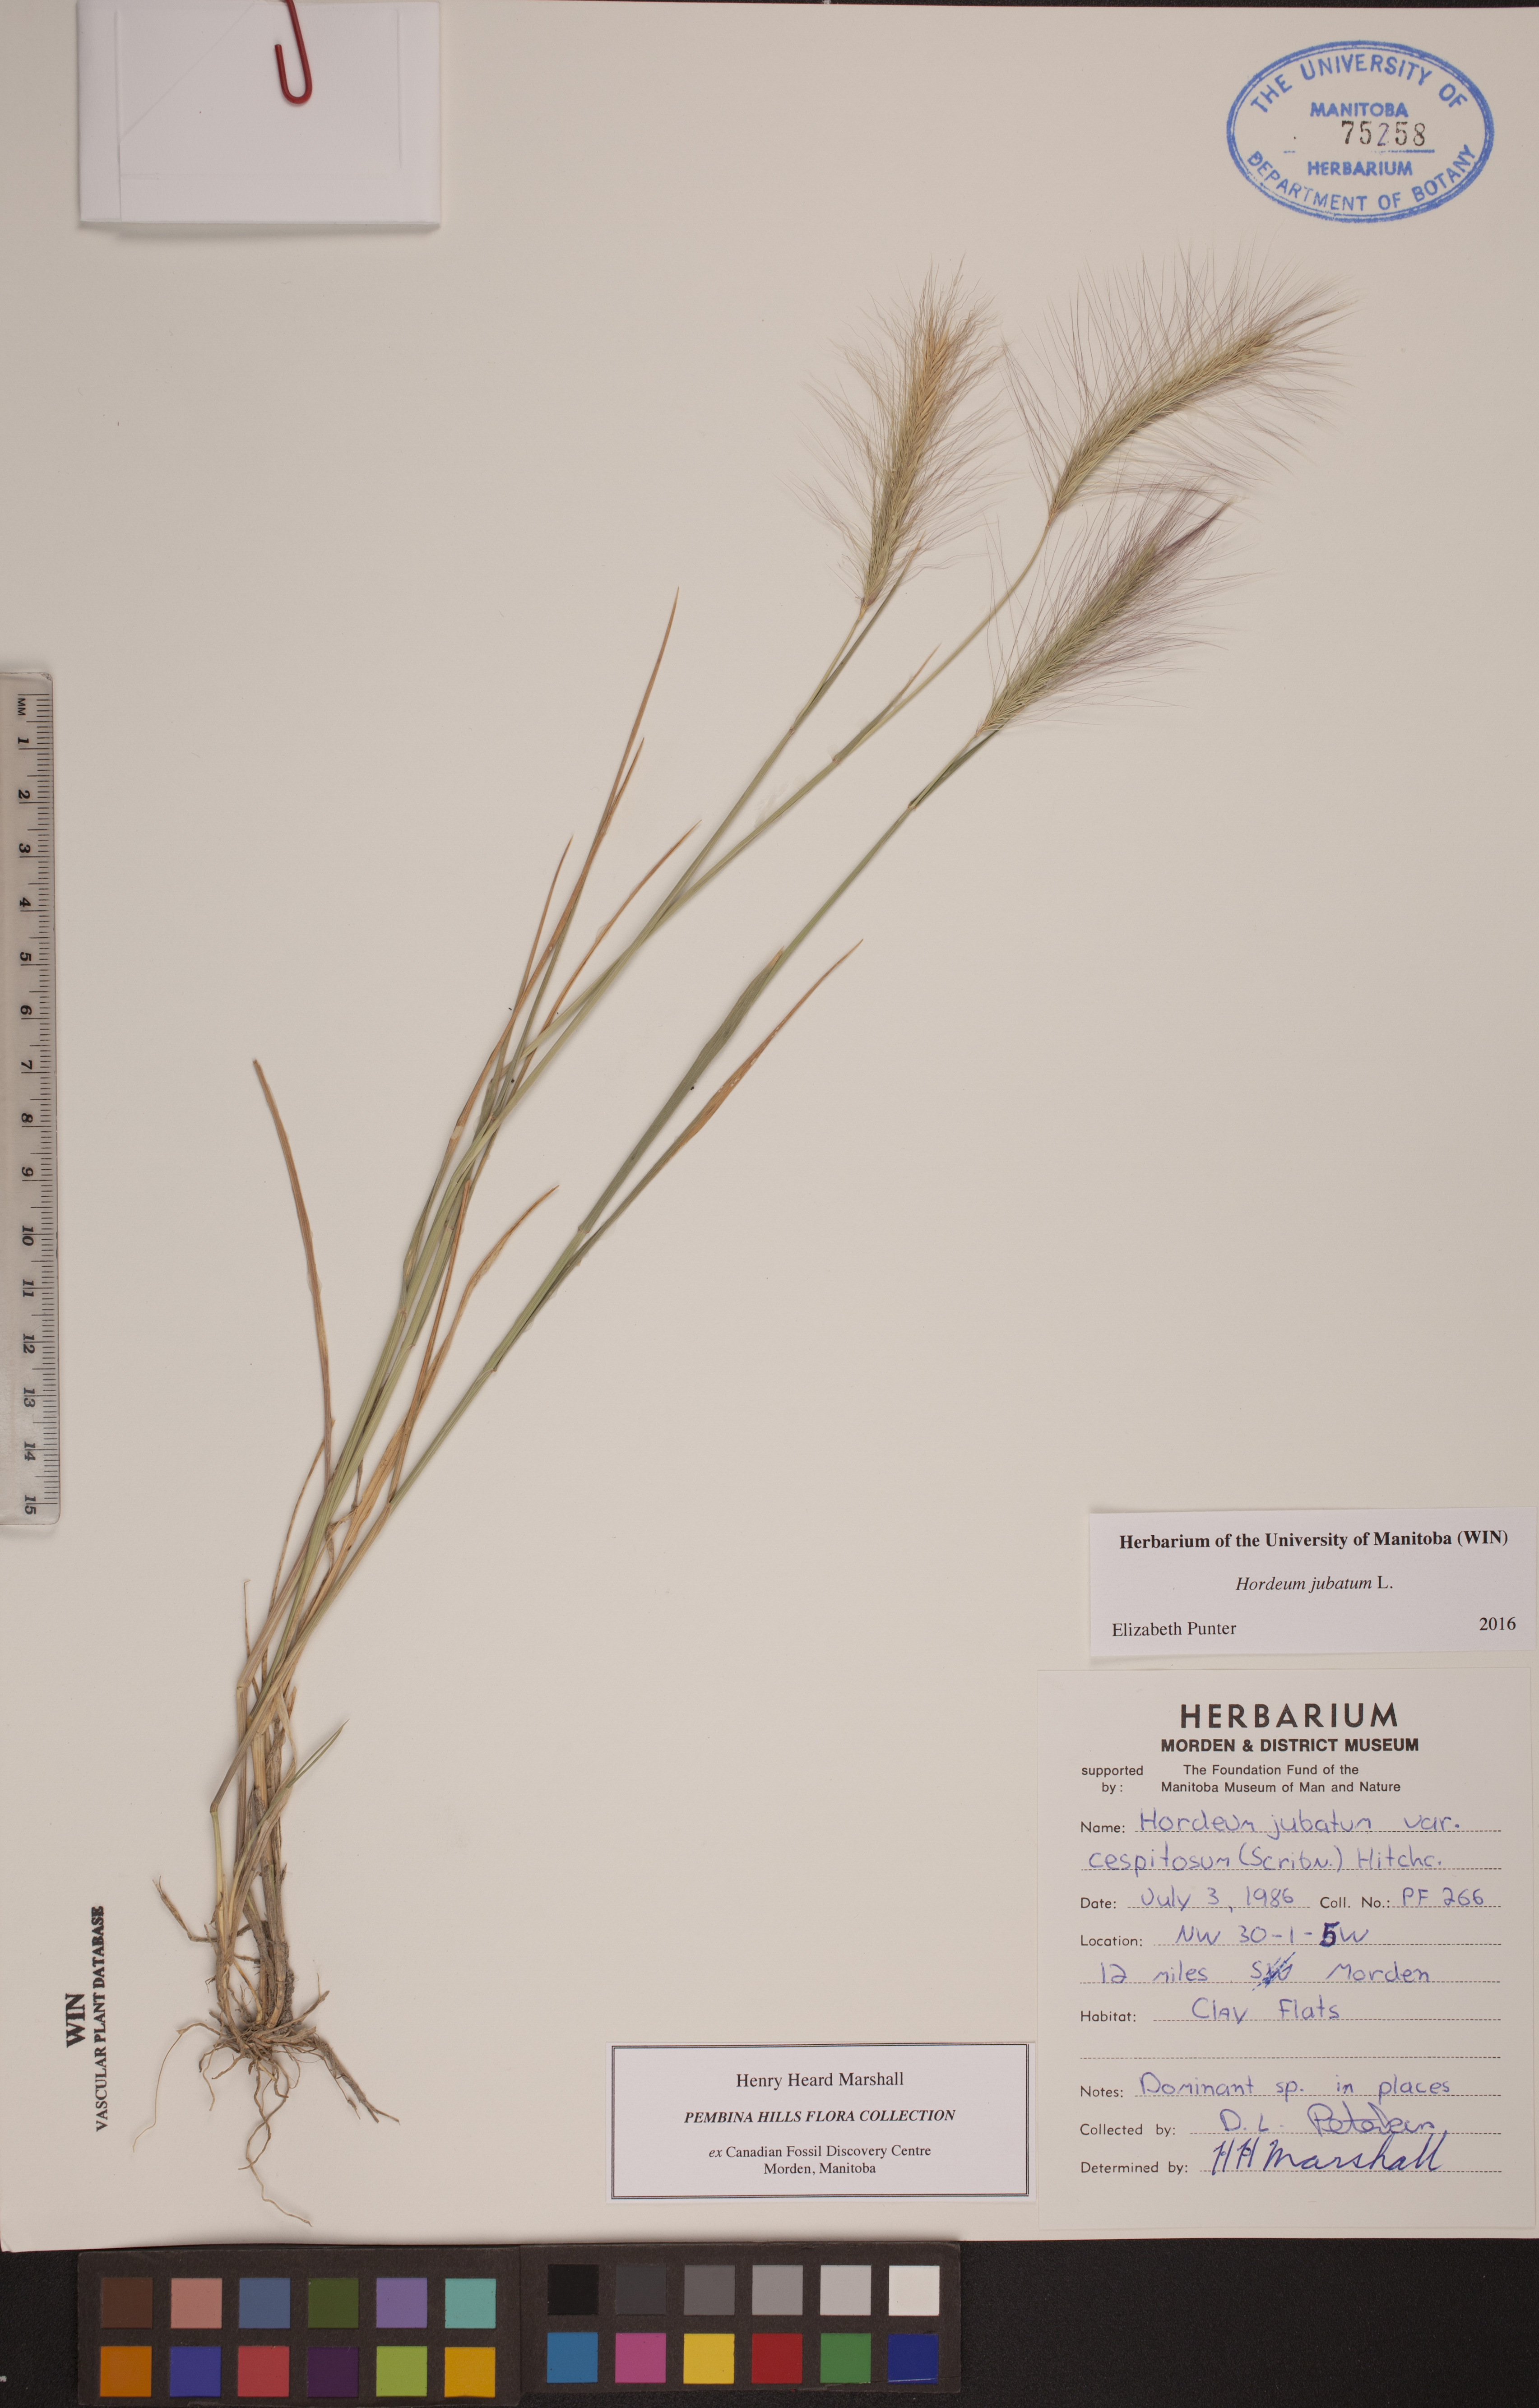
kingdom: Plantae
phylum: Tracheophyta
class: Liliopsida
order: Poales
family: Poaceae
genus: Hordeum
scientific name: Hordeum jubatum
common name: Foxtail barley
